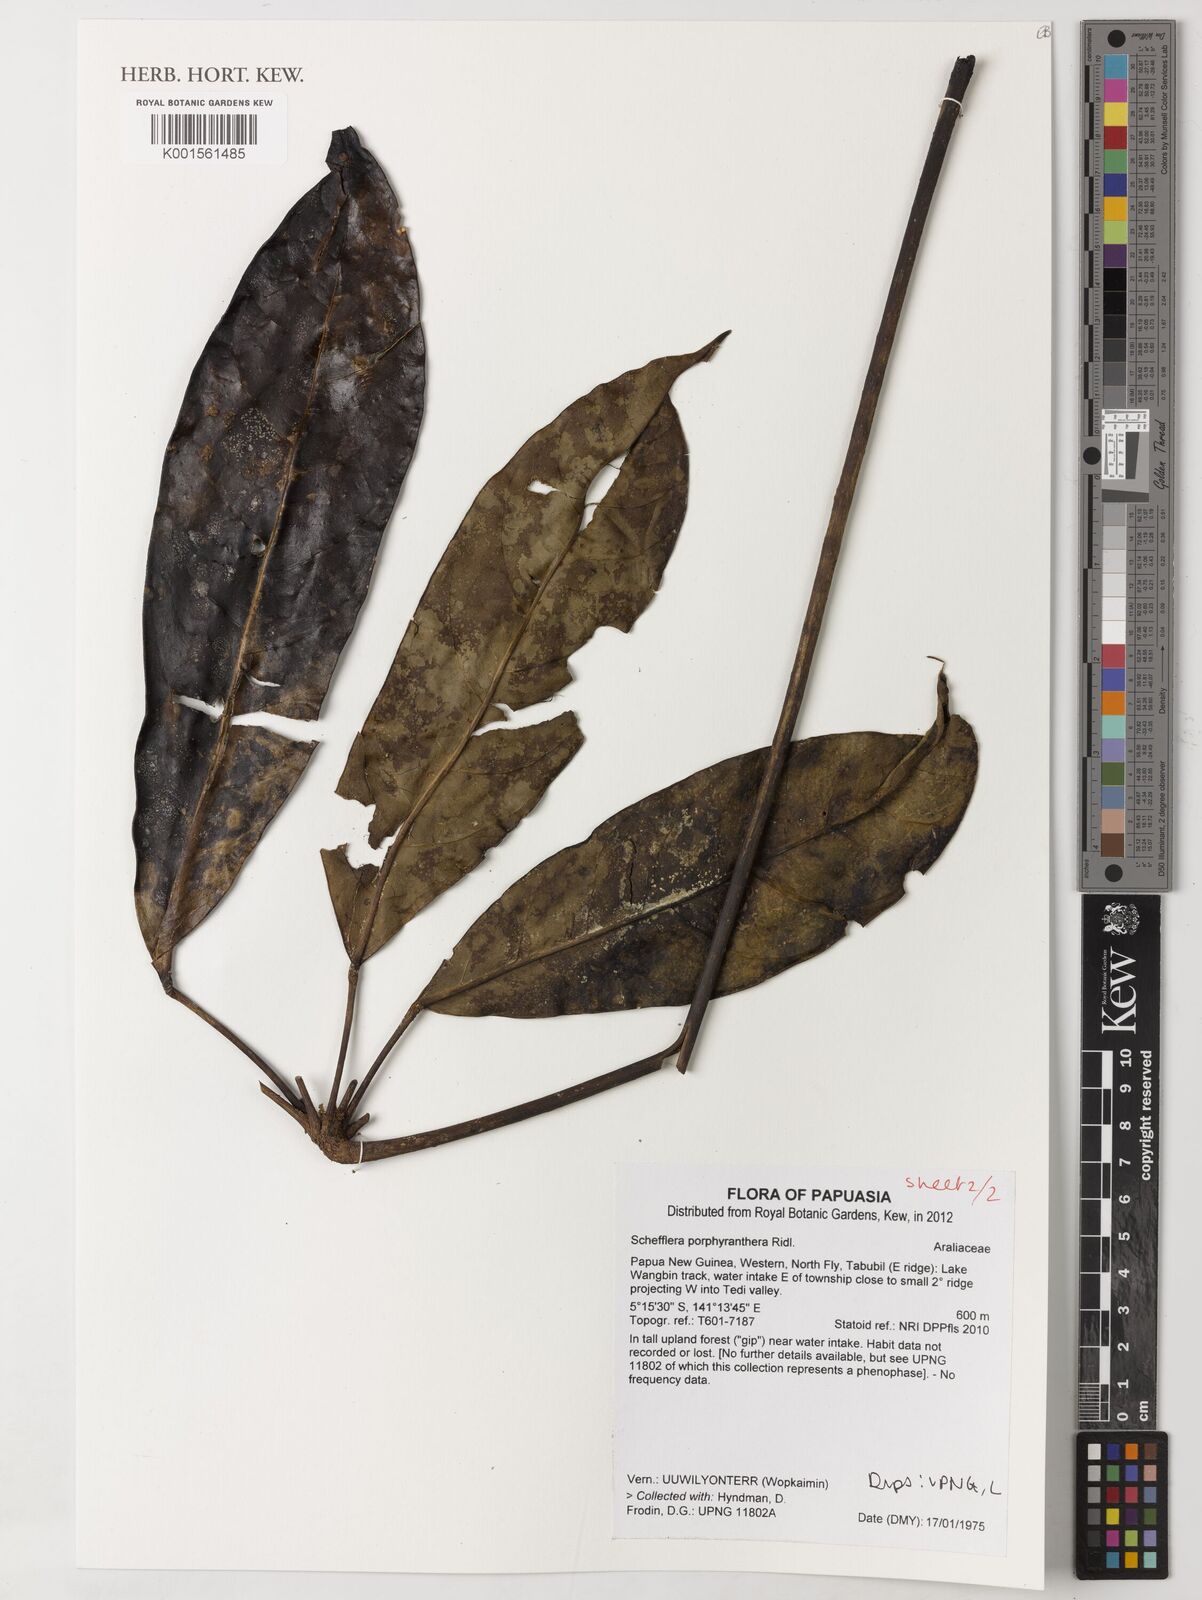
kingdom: Plantae
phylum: Tracheophyta
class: Magnoliopsida
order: Apiales
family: Araliaceae
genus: Heptapleurum
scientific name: Heptapleurum porphyrantherum
